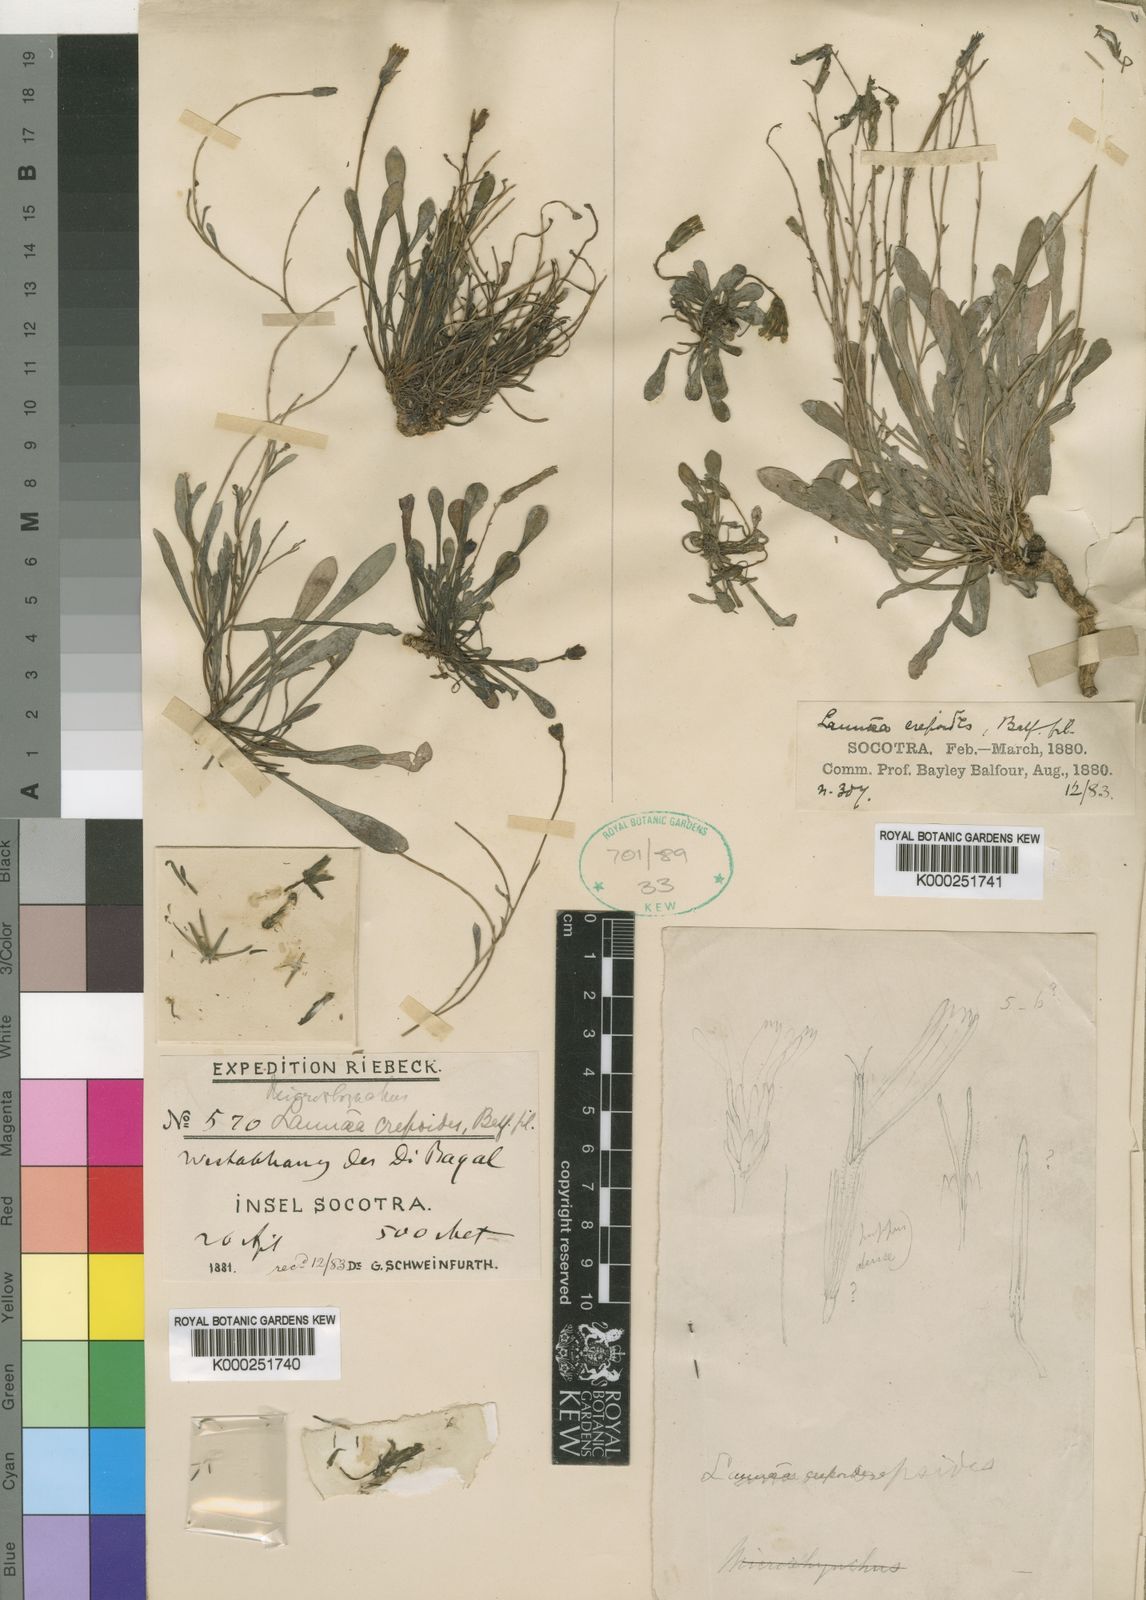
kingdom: Plantae
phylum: Tracheophyta
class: Magnoliopsida
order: Asterales
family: Asteraceae
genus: Launaea
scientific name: Launaea crepoides
